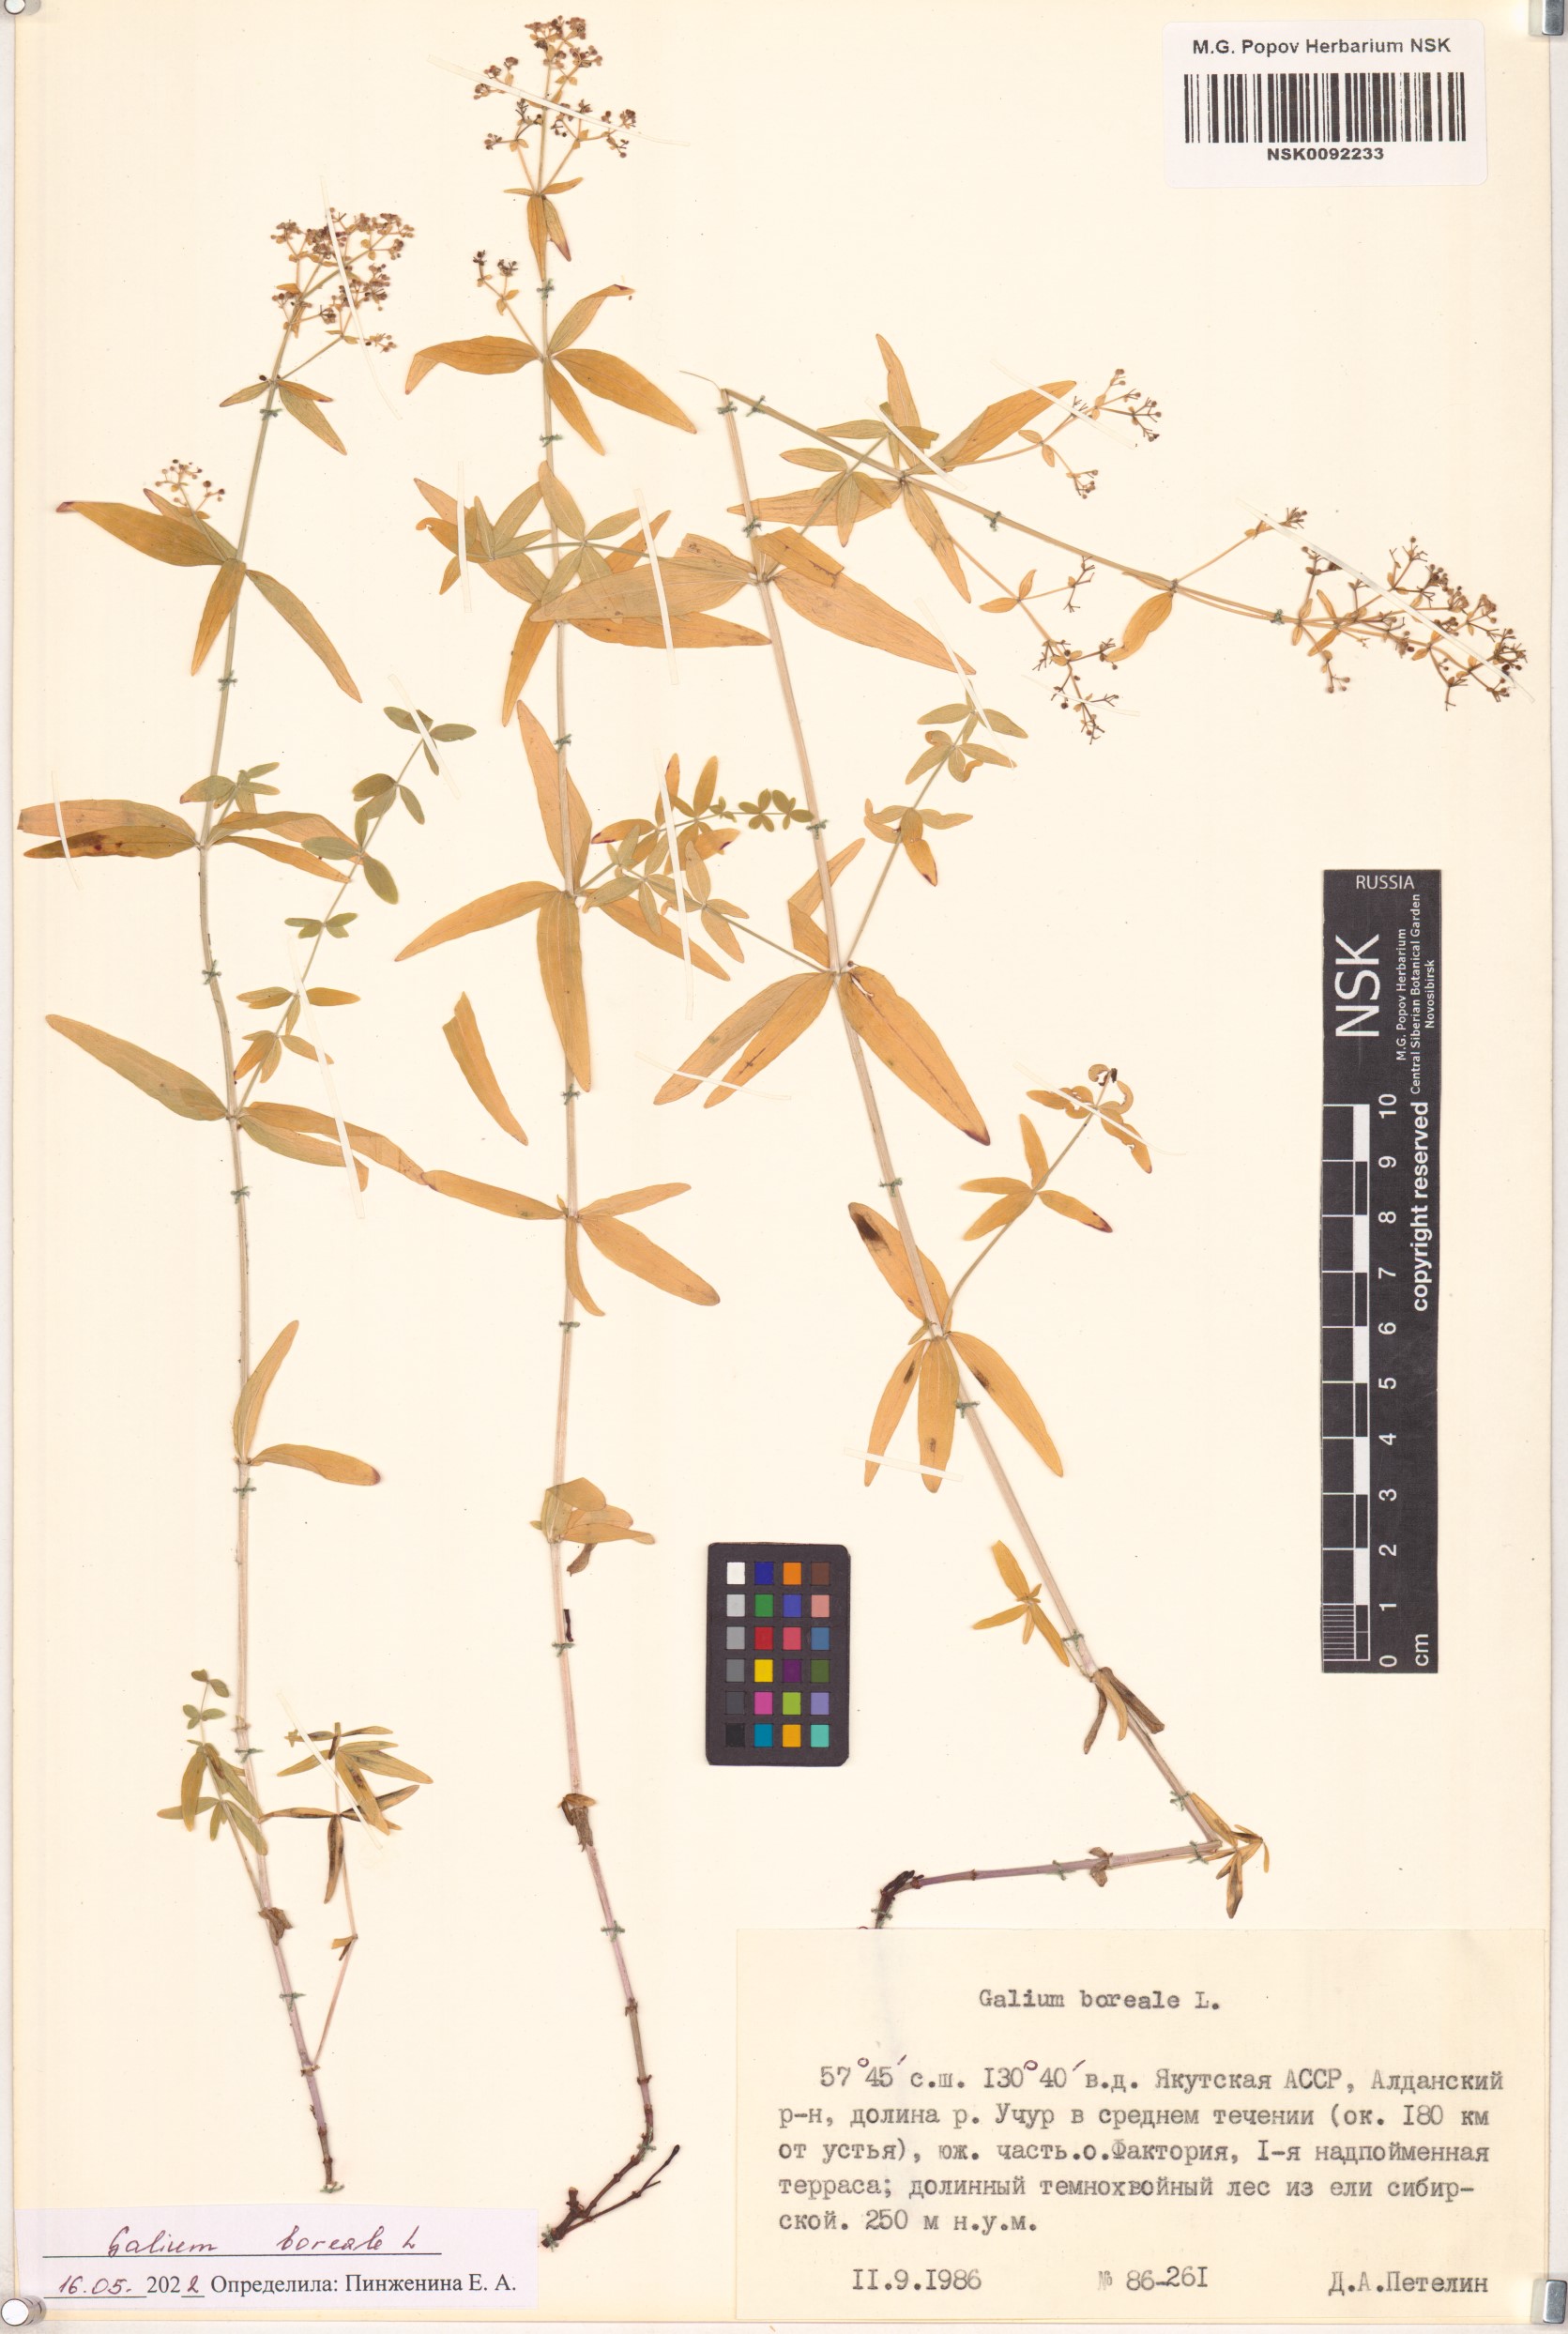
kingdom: Plantae
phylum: Tracheophyta
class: Magnoliopsida
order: Gentianales
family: Rubiaceae
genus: Galium
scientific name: Galium boreale
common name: Northern bedstraw
